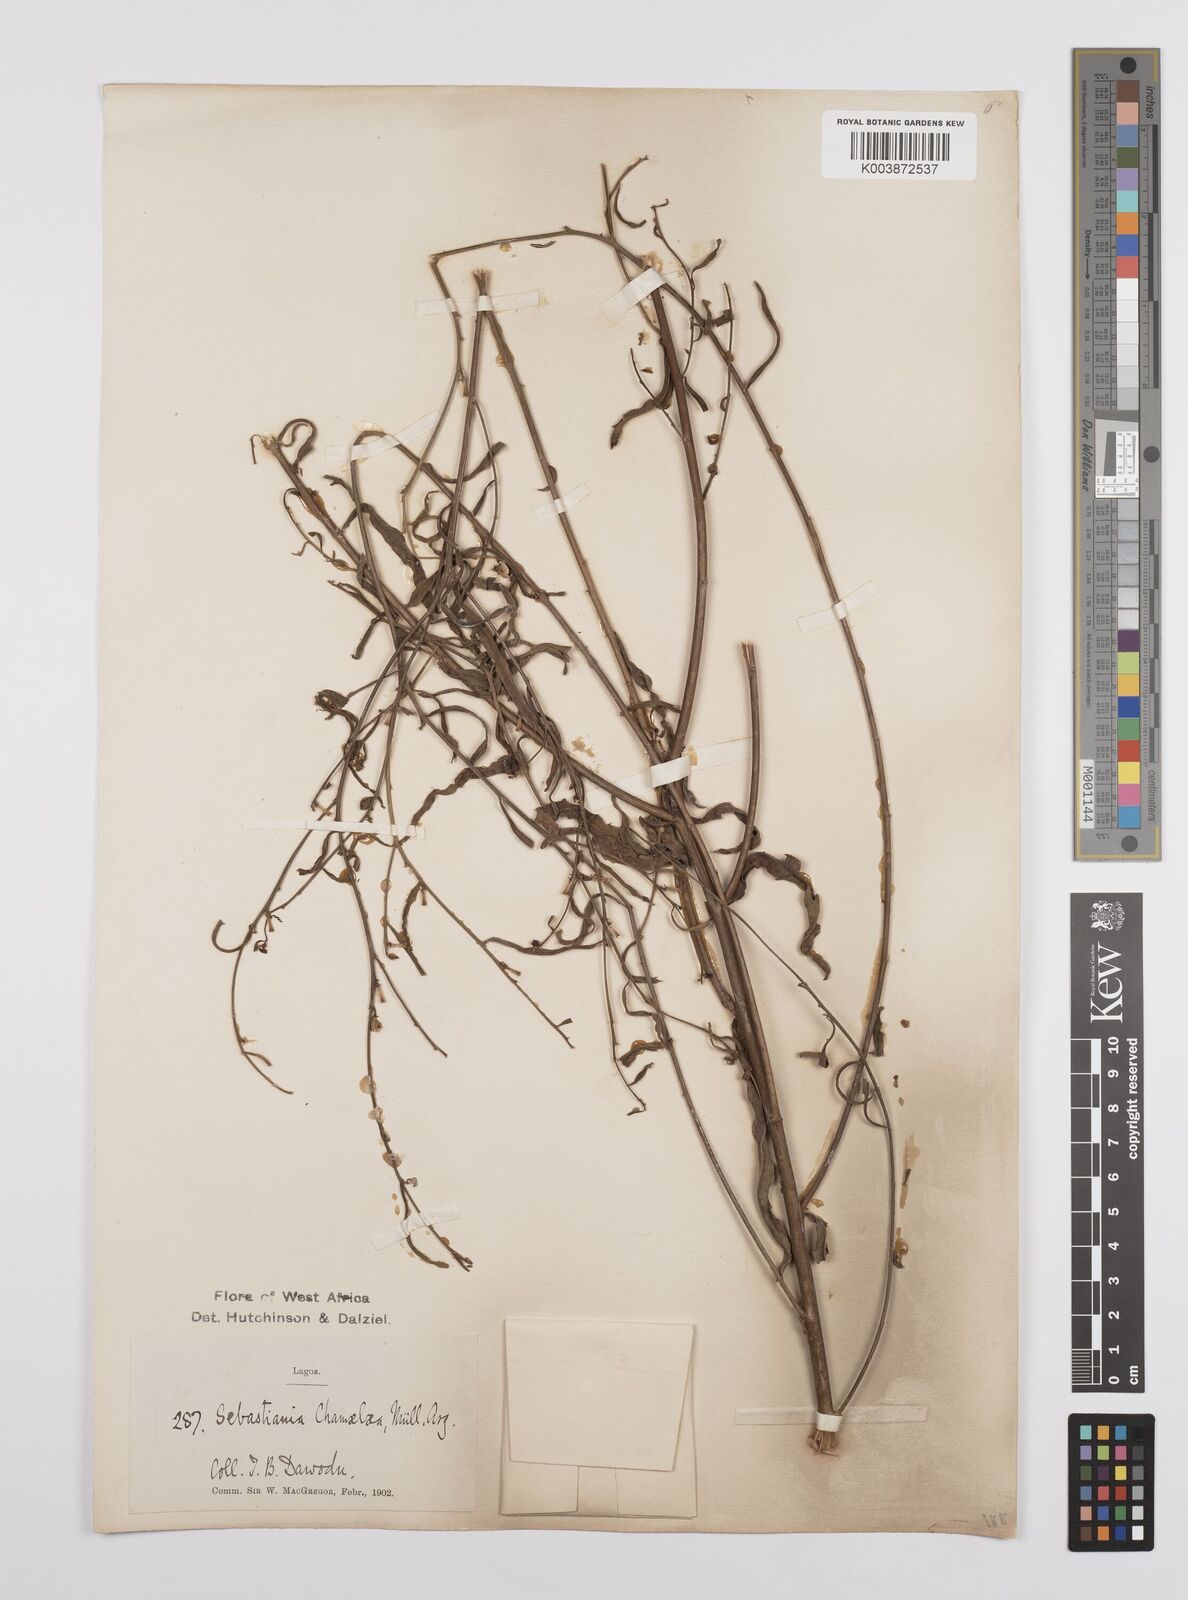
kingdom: Plantae
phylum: Tracheophyta
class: Magnoliopsida
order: Malpighiales
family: Euphorbiaceae
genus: Microstachys
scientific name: Microstachys chamaelea
